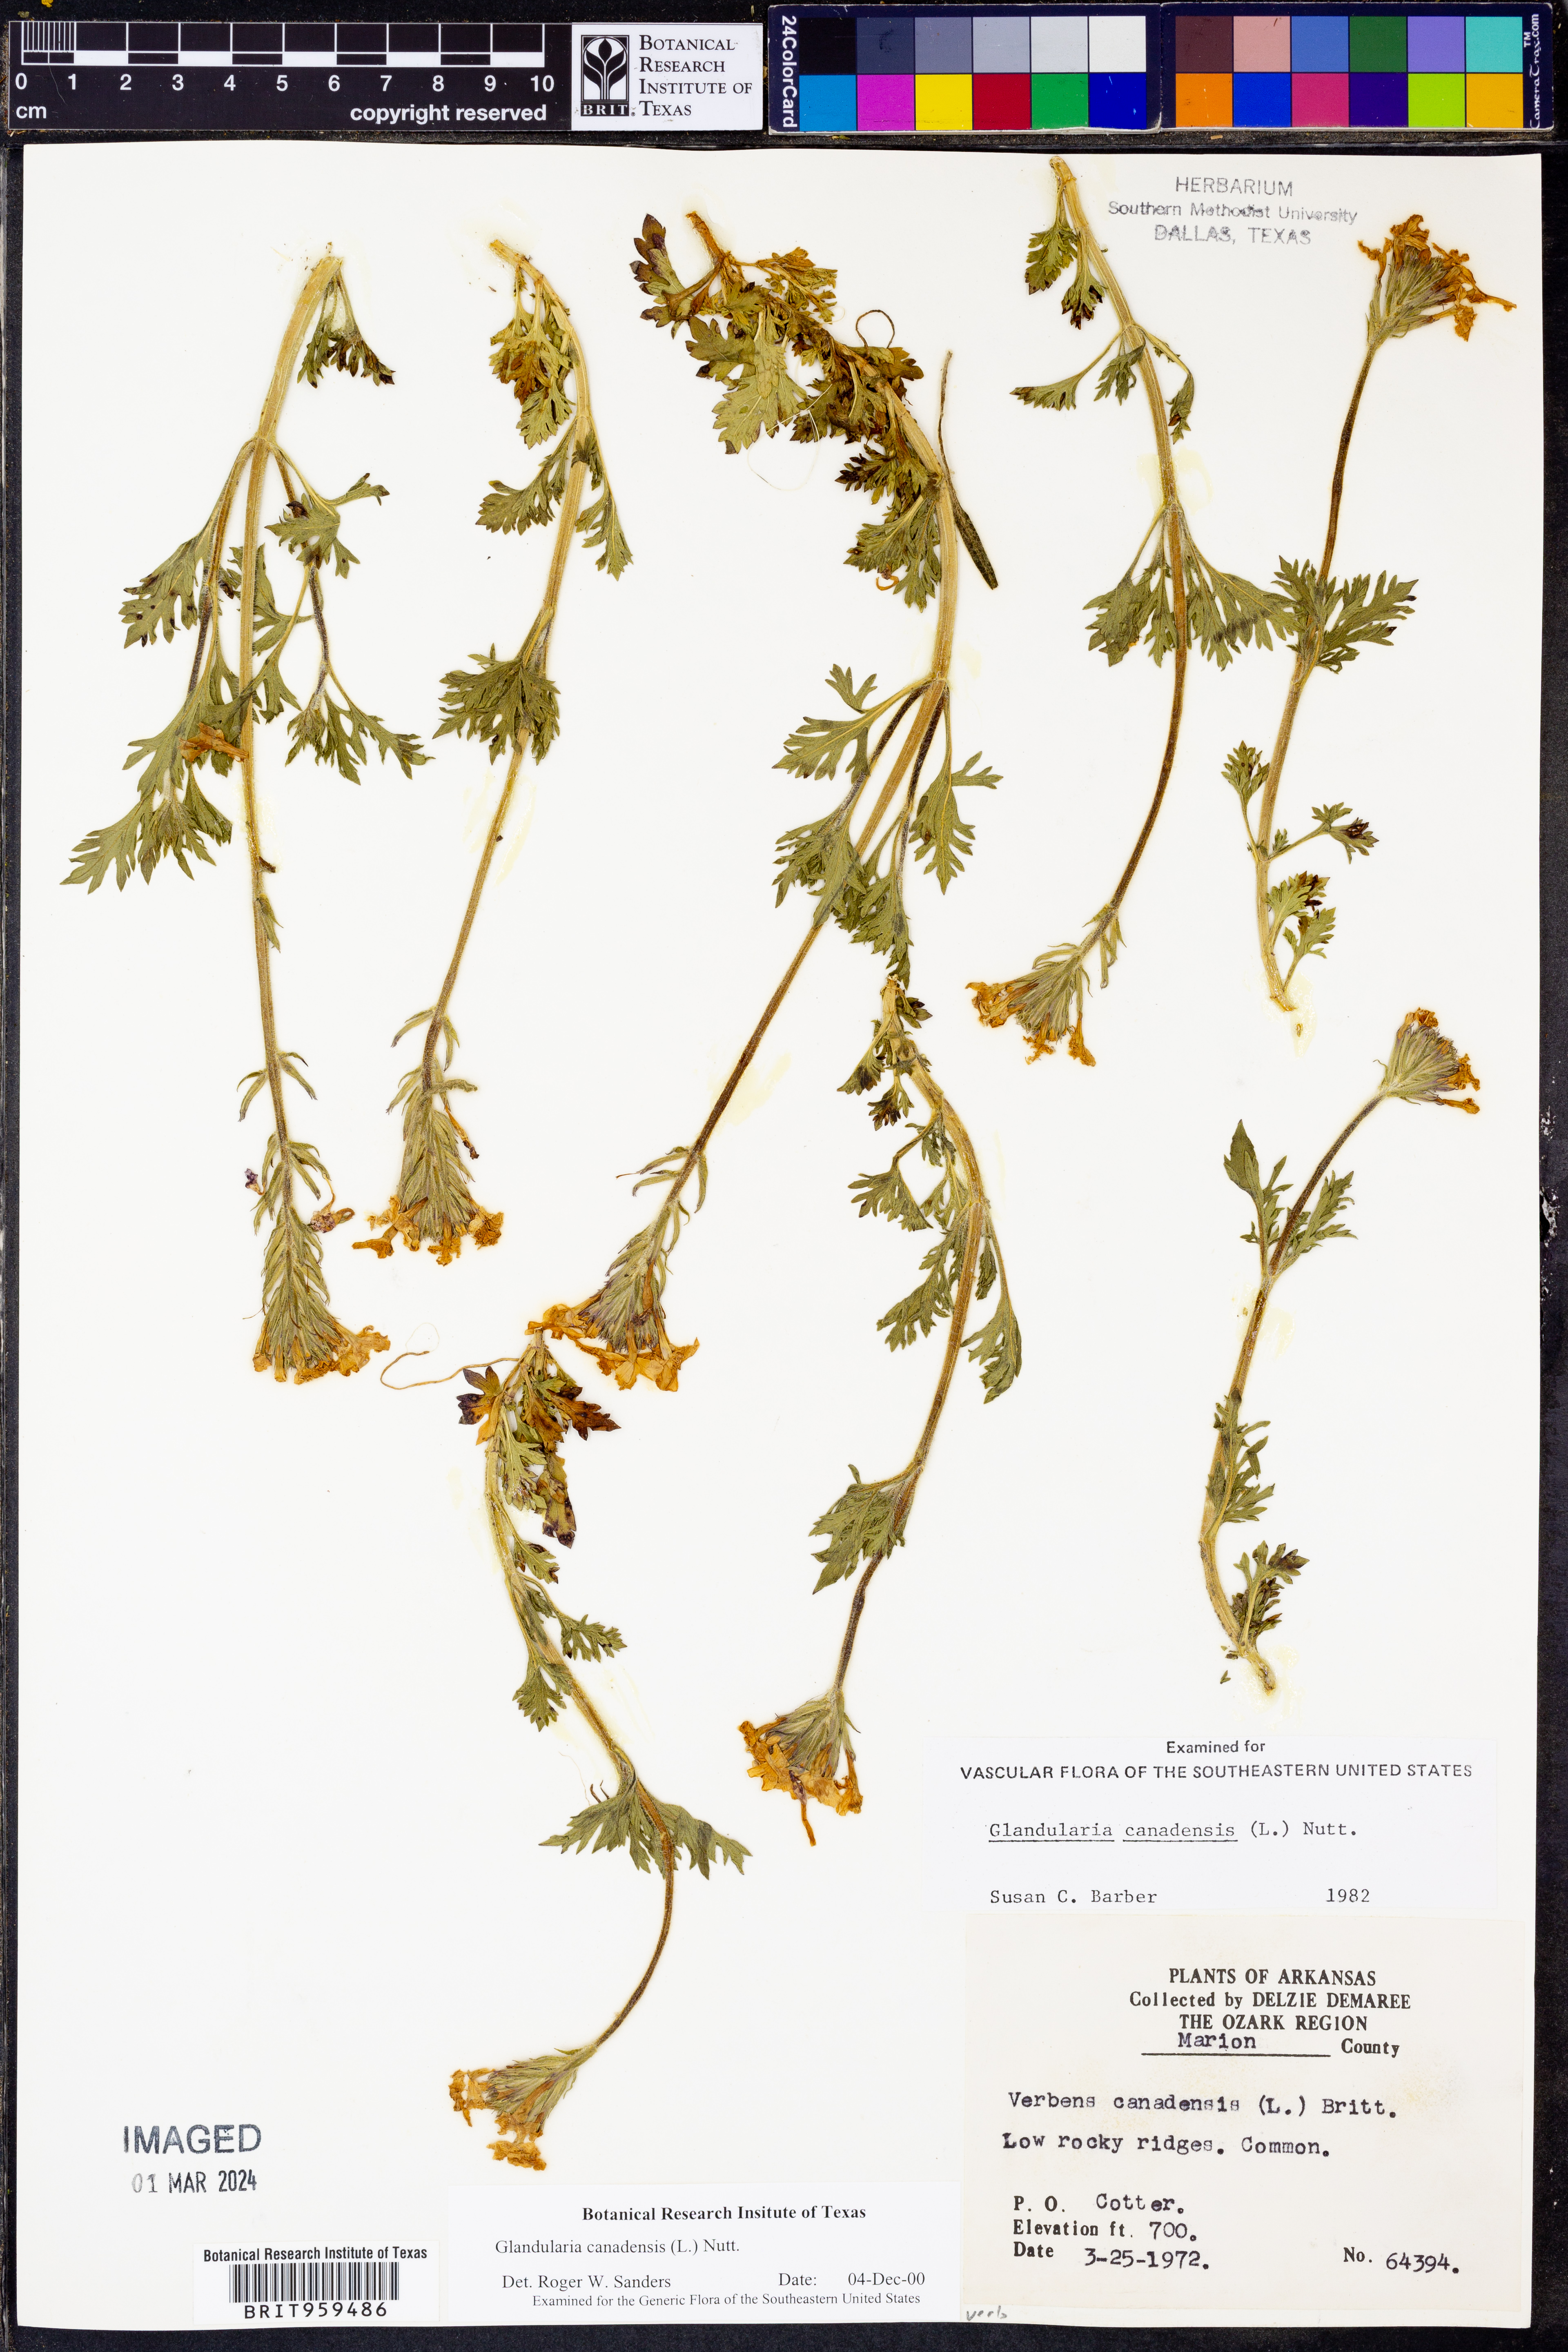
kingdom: Plantae
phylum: Tracheophyta
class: Magnoliopsida
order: Lamiales
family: Verbenaceae
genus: Verbena
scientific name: Verbena canadensis
